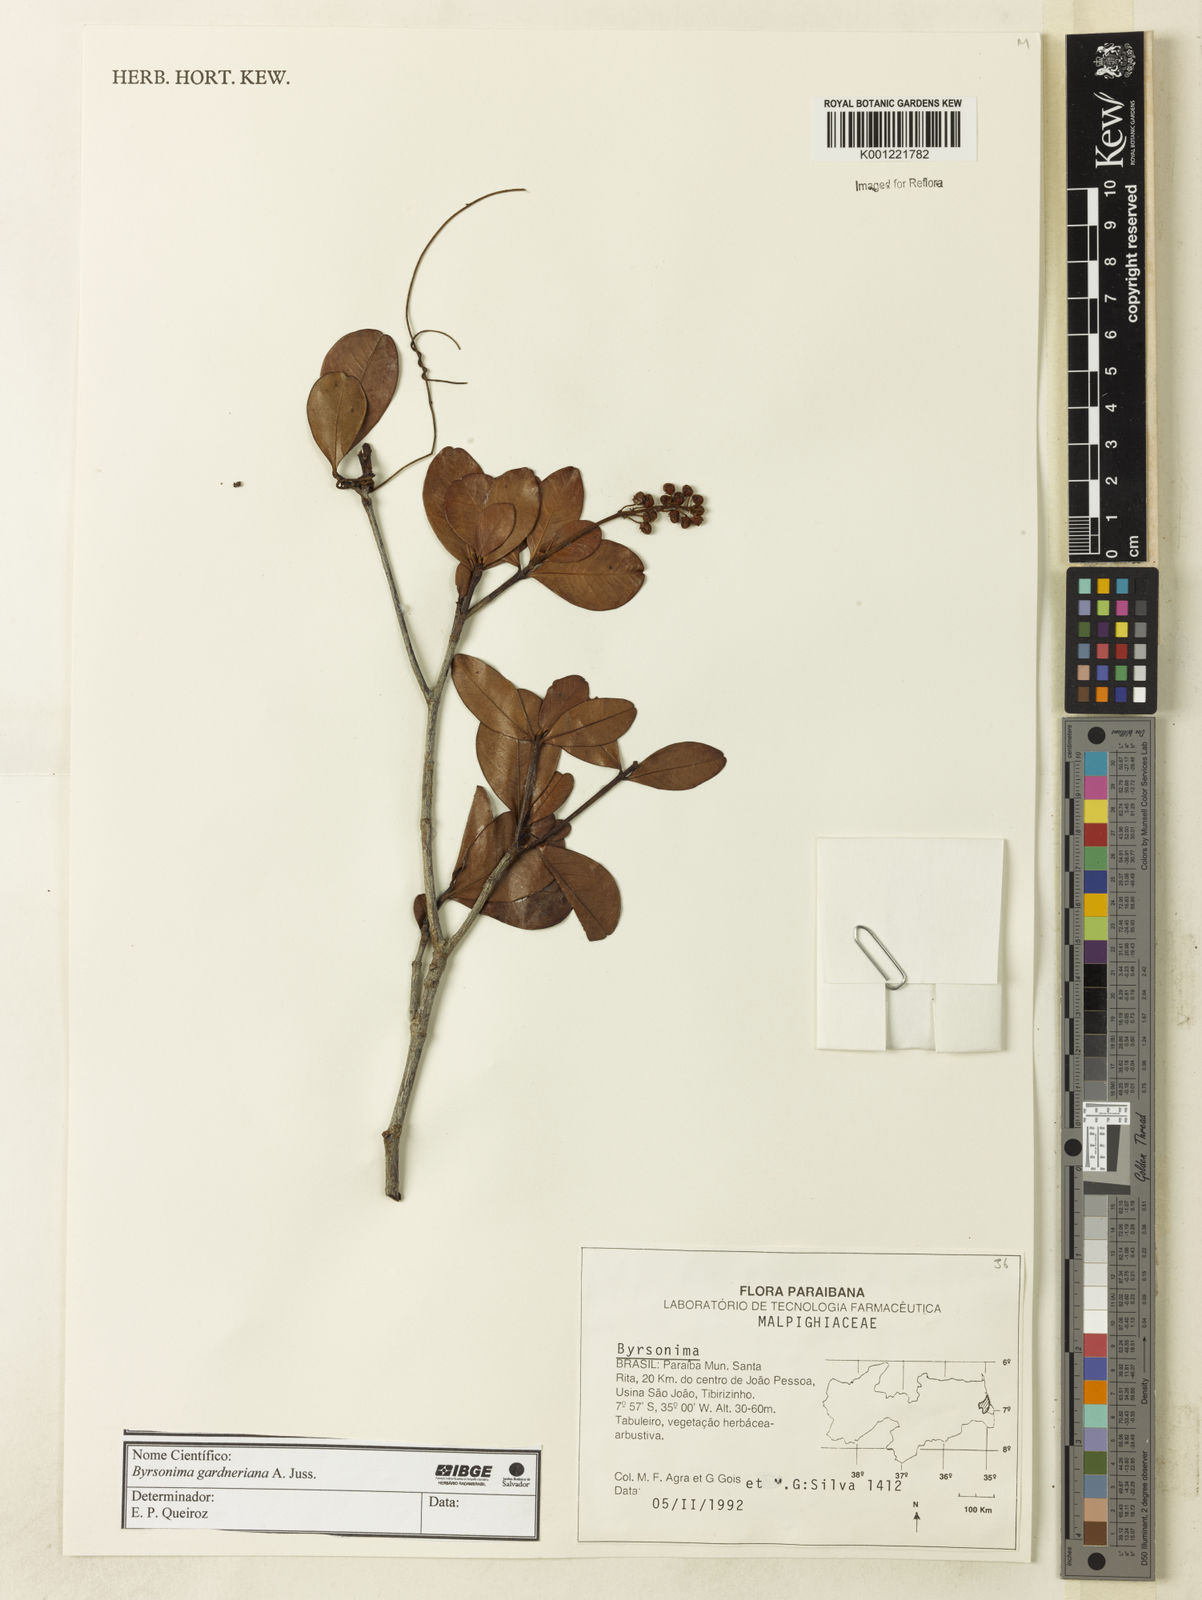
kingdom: Plantae
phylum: Tracheophyta
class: Magnoliopsida
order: Malpighiales
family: Malpighiaceae
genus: Byrsonima
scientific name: Byrsonima gardneriana
